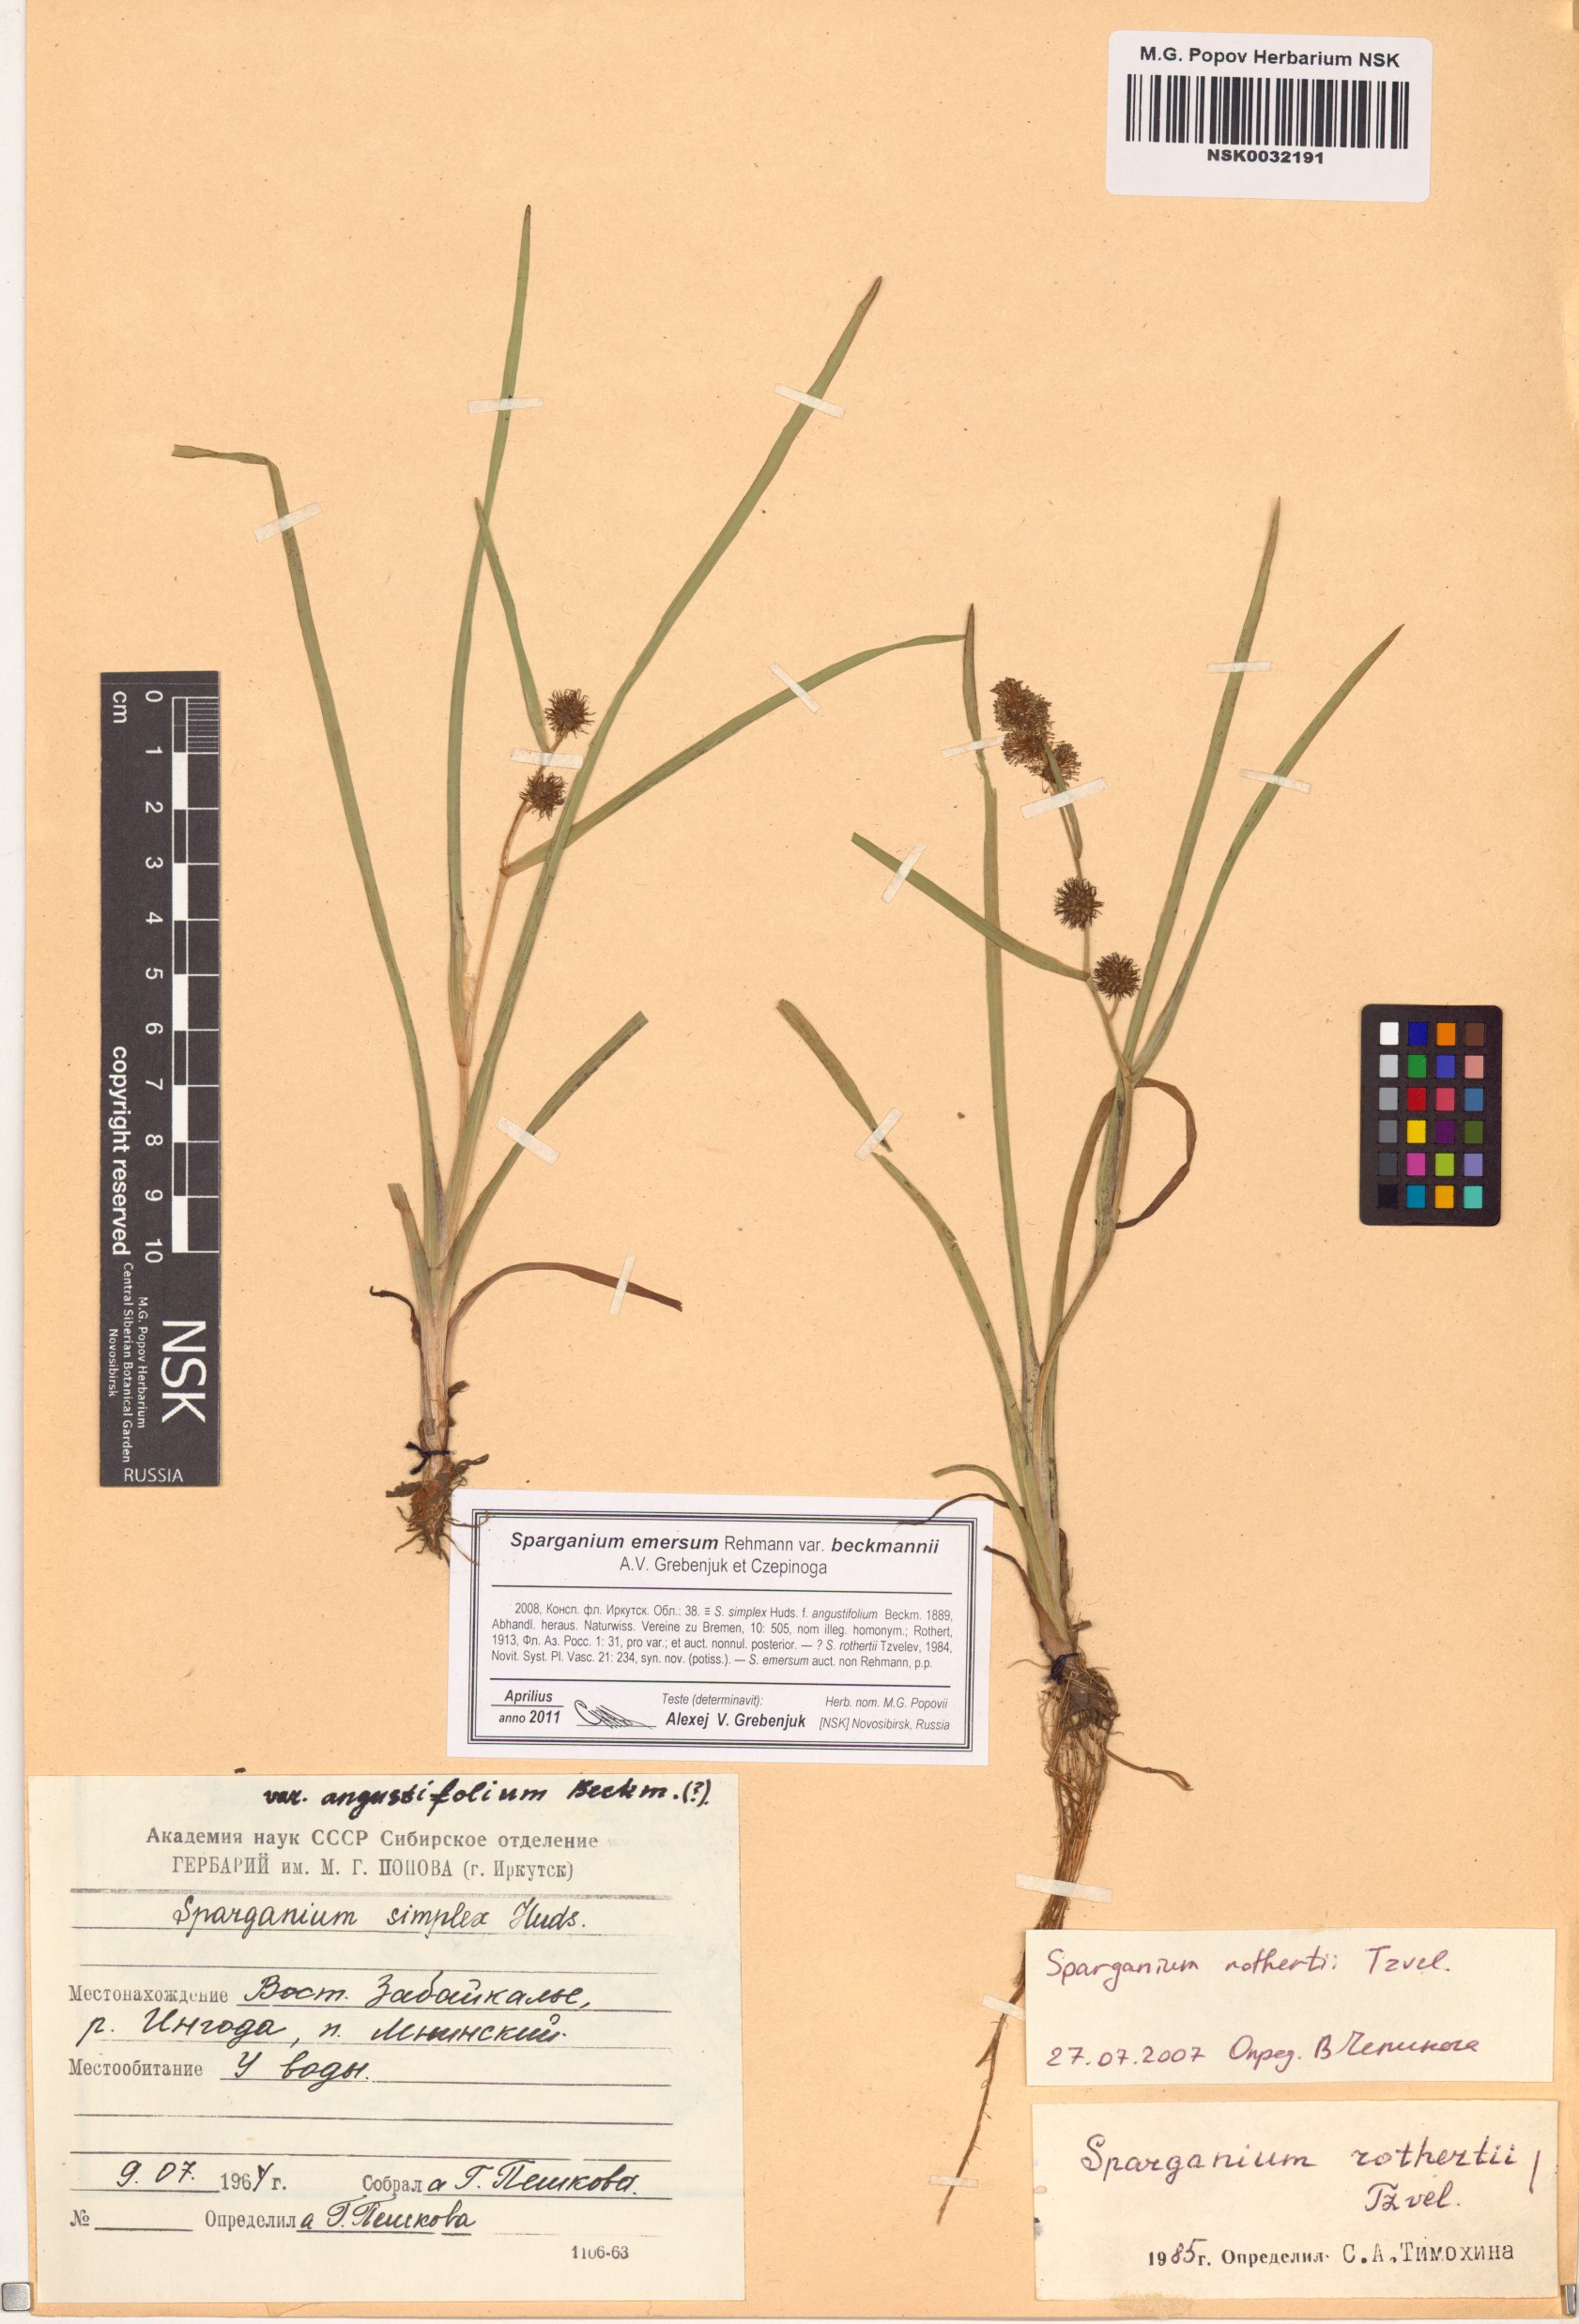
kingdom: Plantae
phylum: Tracheophyta
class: Liliopsida
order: Poales
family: Typhaceae
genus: Sparganium
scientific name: Sparganium emersum
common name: Unbranched bur-reed
